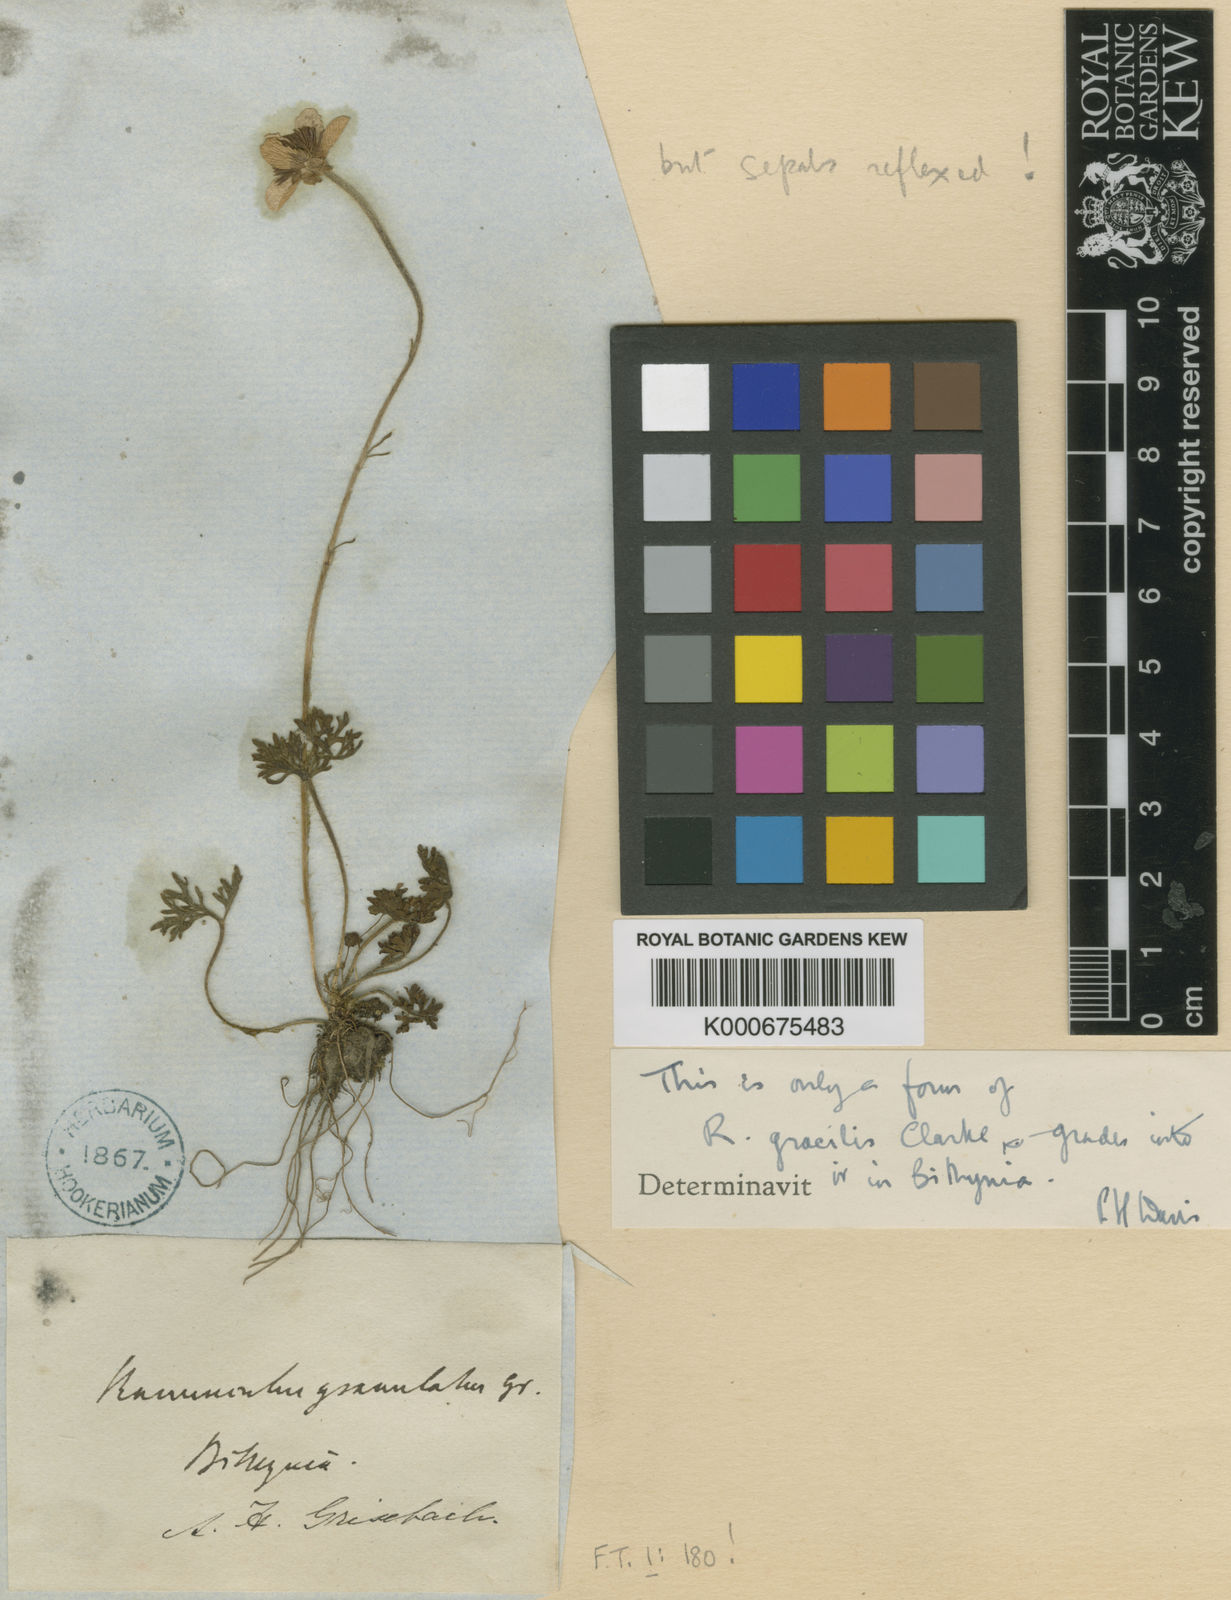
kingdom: Plantae
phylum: Tracheophyta
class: Magnoliopsida
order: Ranunculales
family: Ranunculaceae
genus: Ranunculus
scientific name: Ranunculus gracilis
